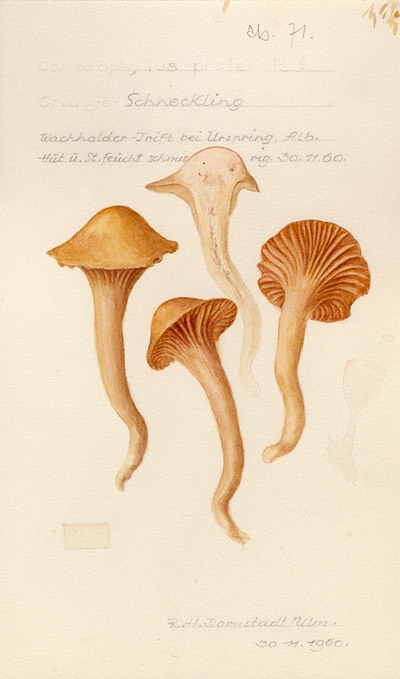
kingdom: Fungi
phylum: Basidiomycota
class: Agaricomycetes
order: Agaricales
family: Hygrophoraceae
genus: Cuphophyllus
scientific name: Cuphophyllus pratensis
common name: Meadow waxcap
